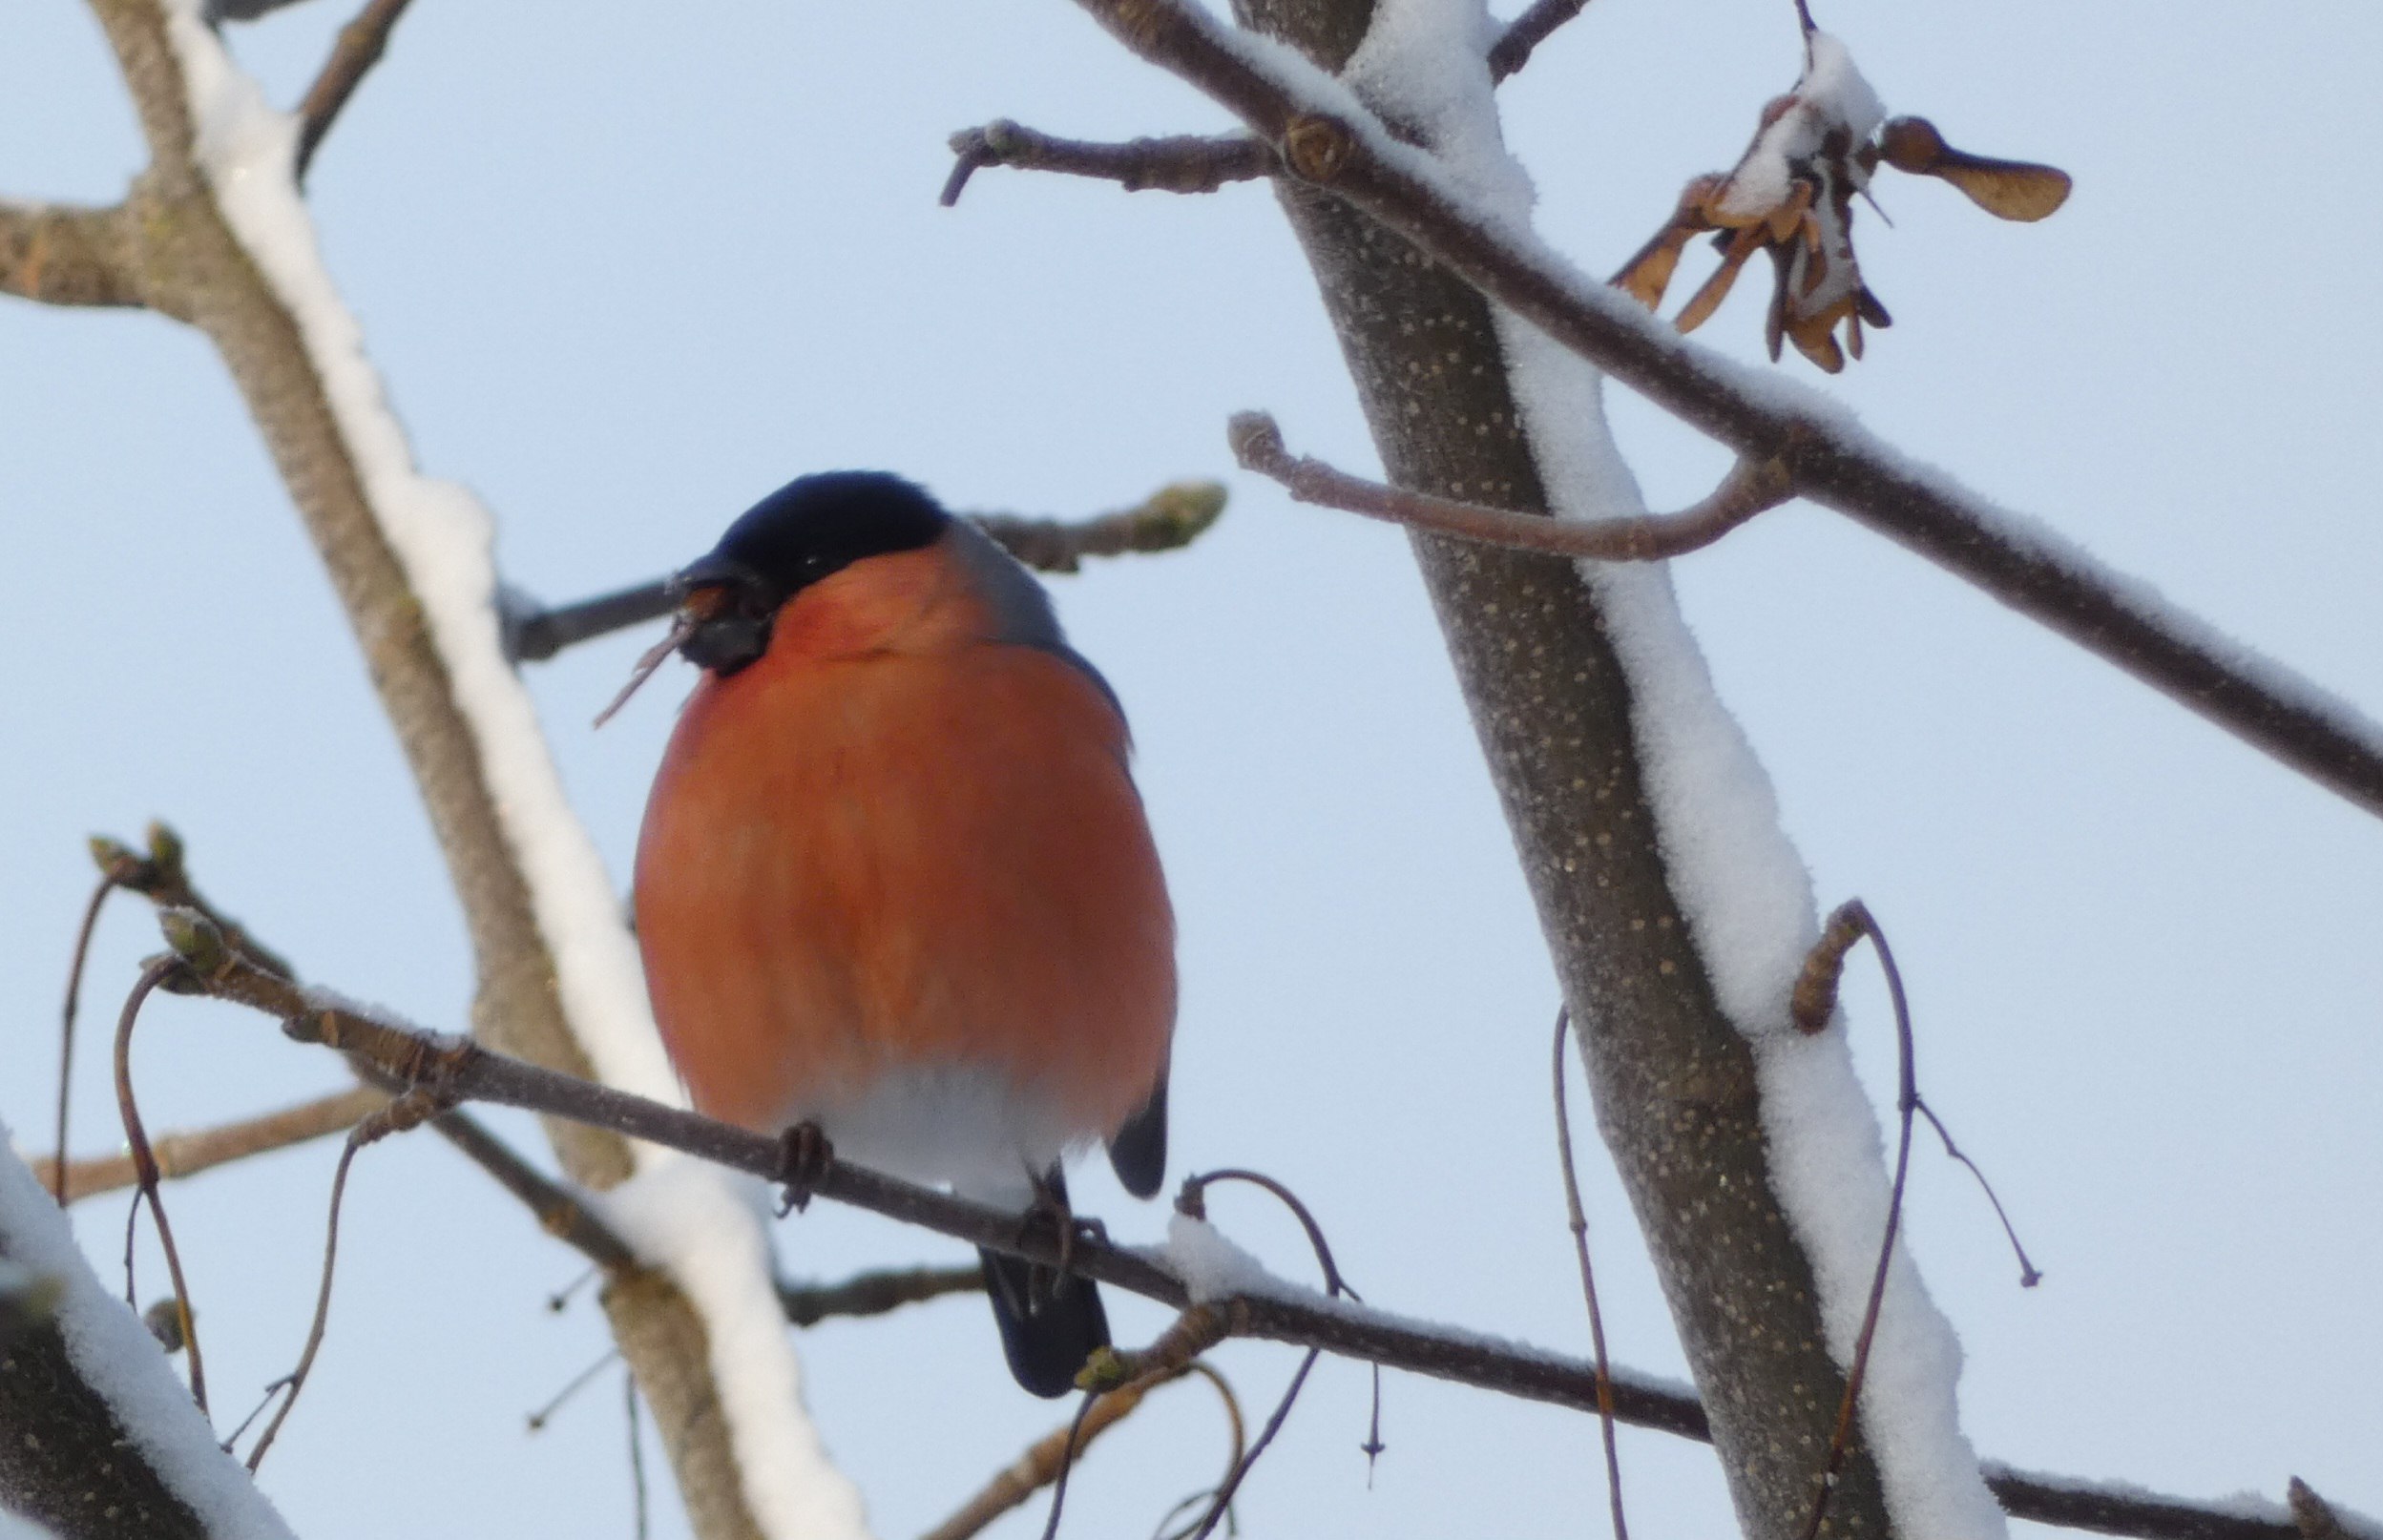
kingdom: Animalia
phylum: Chordata
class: Aves
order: Passeriformes
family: Fringillidae
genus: Pyrrhula
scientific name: Pyrrhula pyrrhula
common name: Dompap
